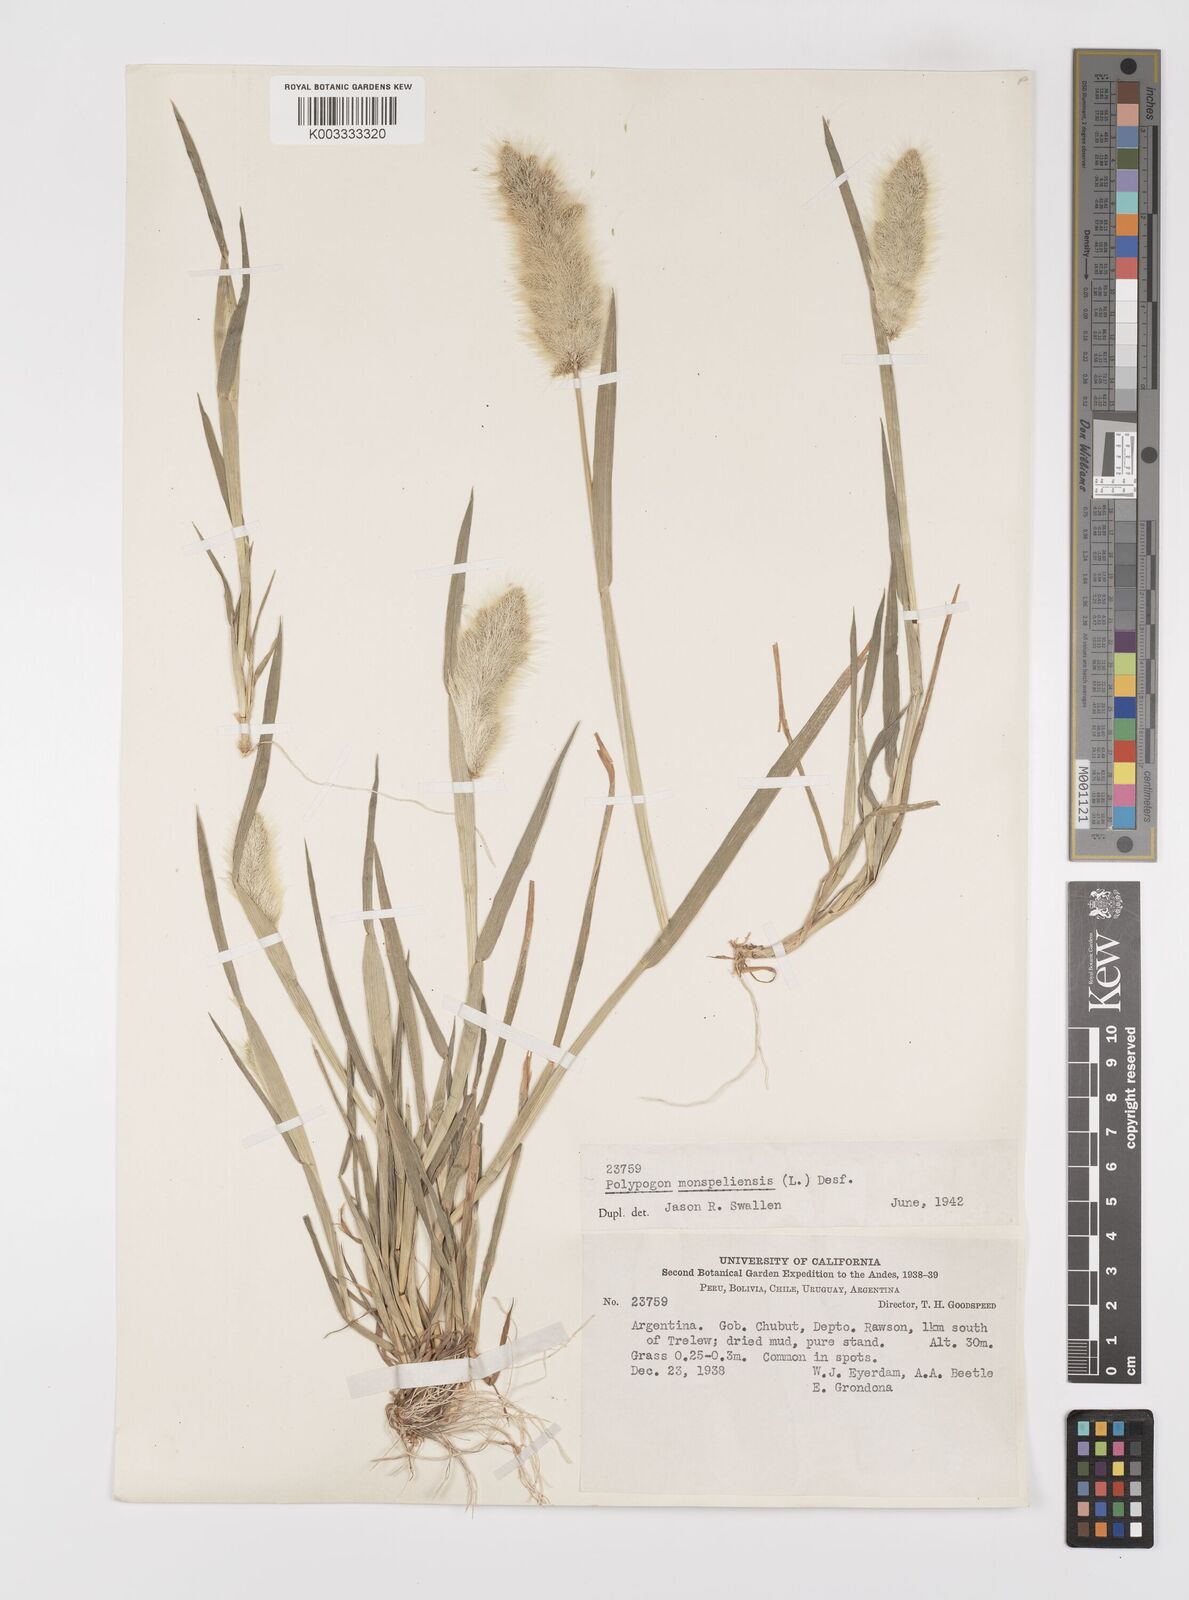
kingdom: Plantae
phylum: Tracheophyta
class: Liliopsida
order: Poales
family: Poaceae
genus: Polypogon
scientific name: Polypogon monspeliensis
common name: Annual rabbitsfoot grass
